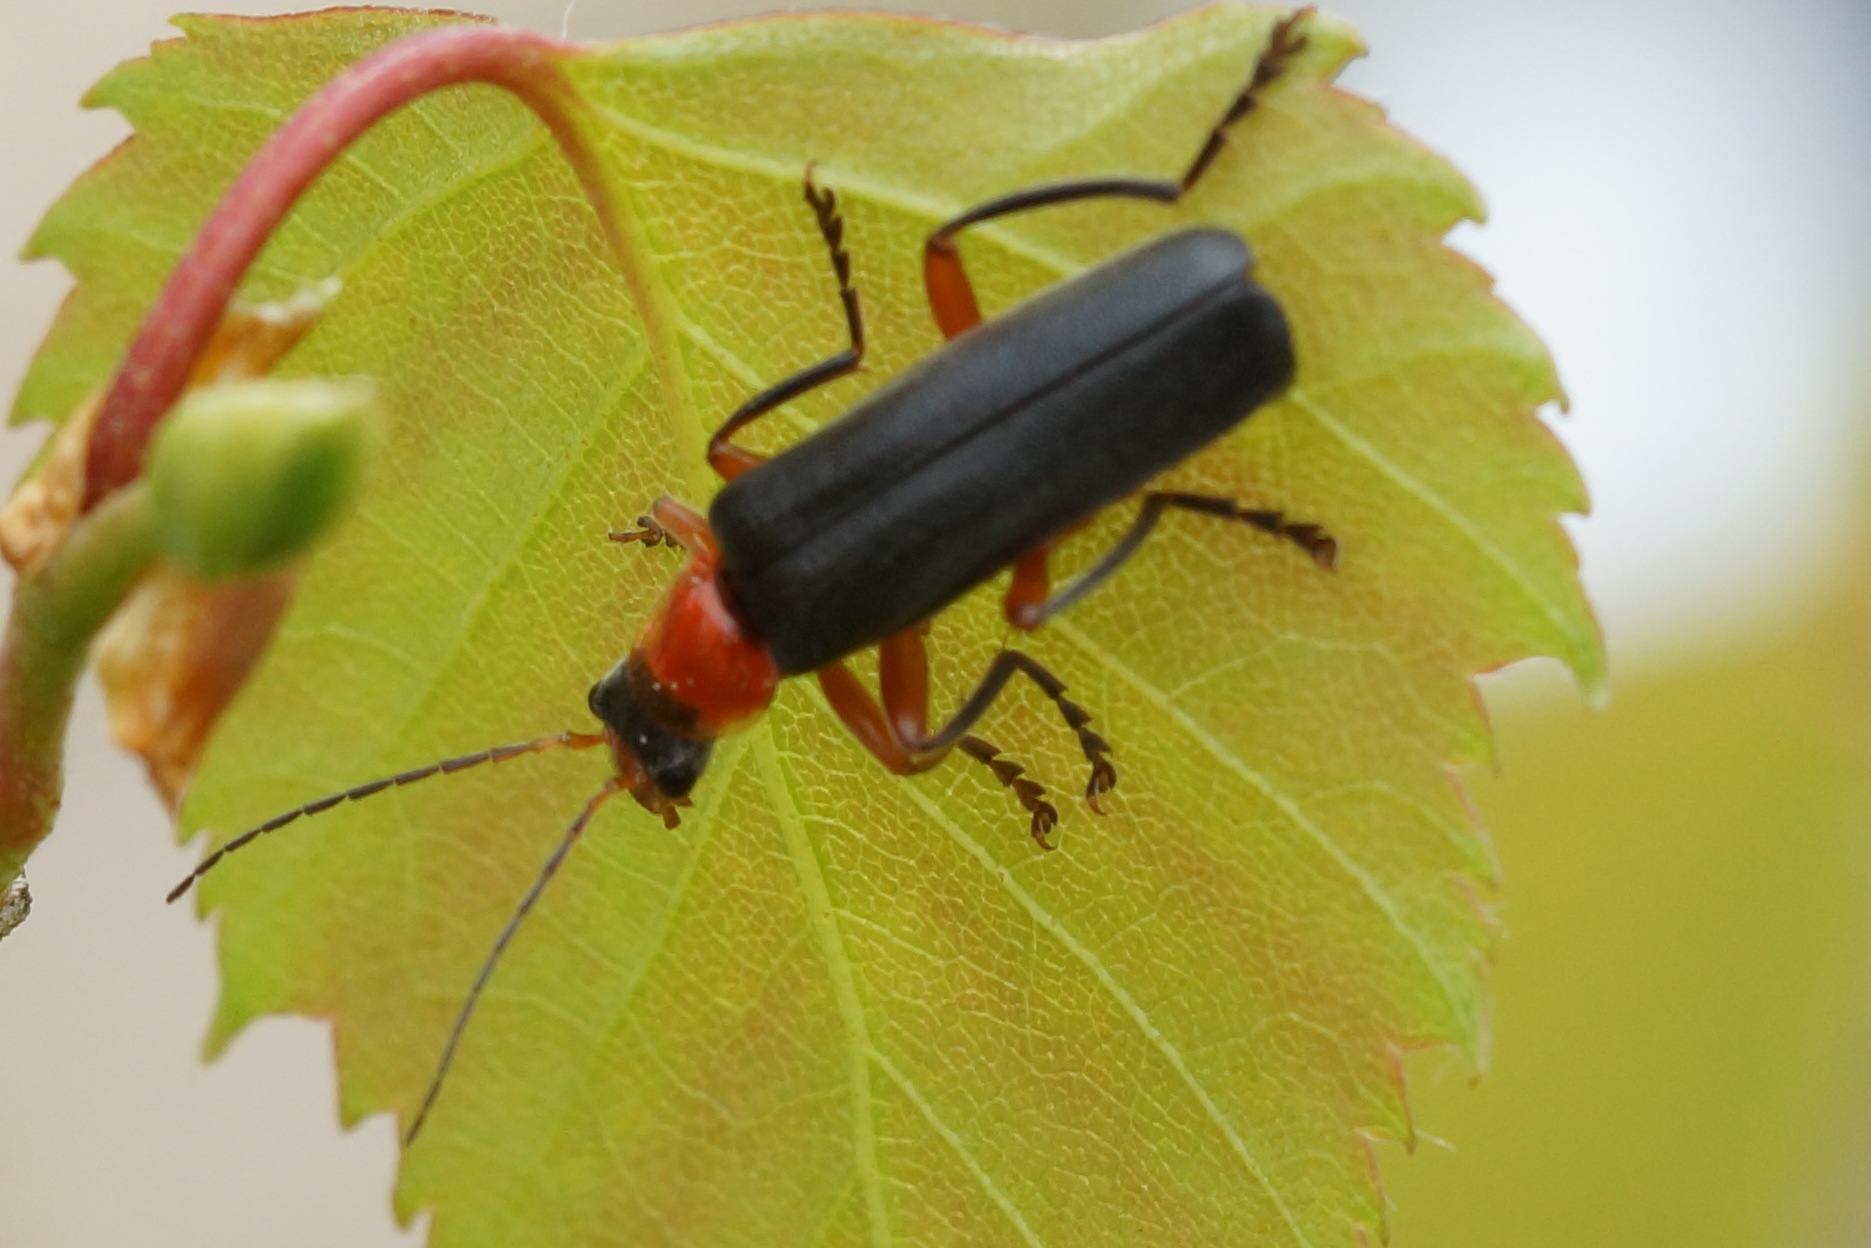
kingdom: Animalia
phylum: Arthropoda
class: Insecta
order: Coleoptera
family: Cantharidae
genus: Cantharis
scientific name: Cantharis pellucida
